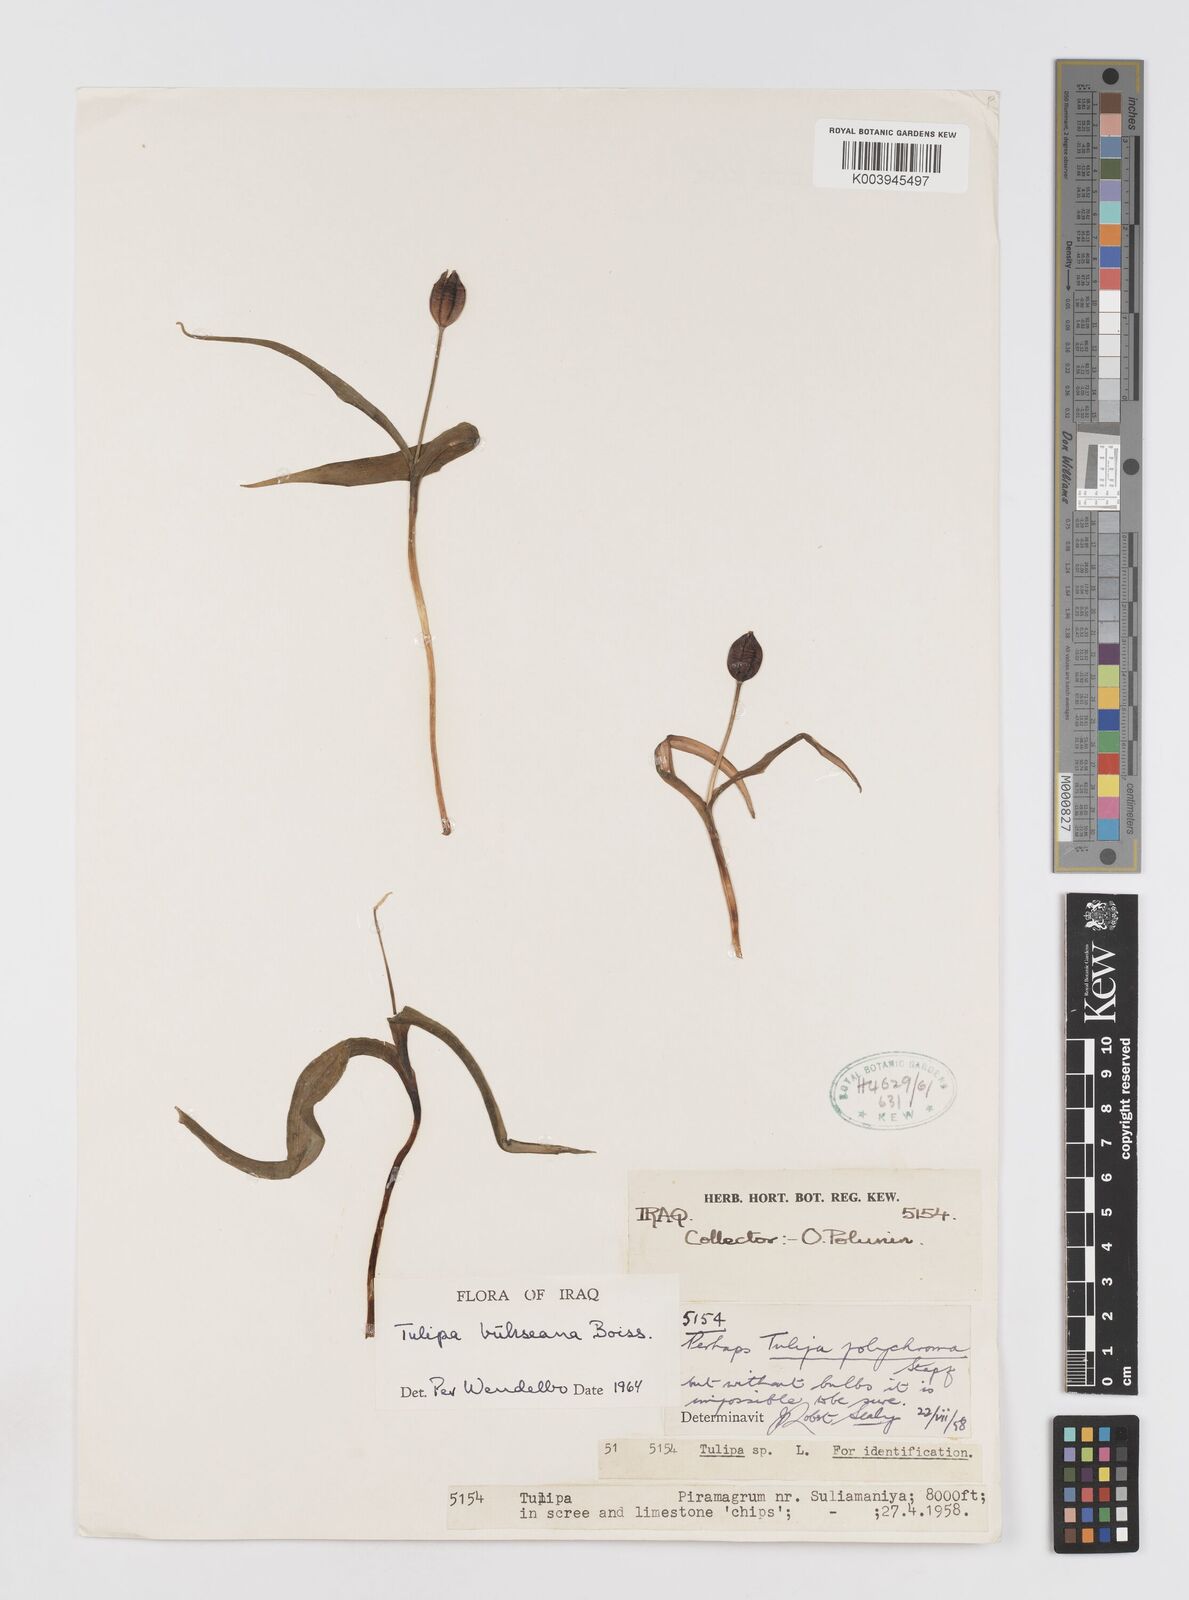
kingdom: Plantae
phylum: Tracheophyta
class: Liliopsida
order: Liliales
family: Liliaceae
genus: Tulipa
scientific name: Tulipa biflora
